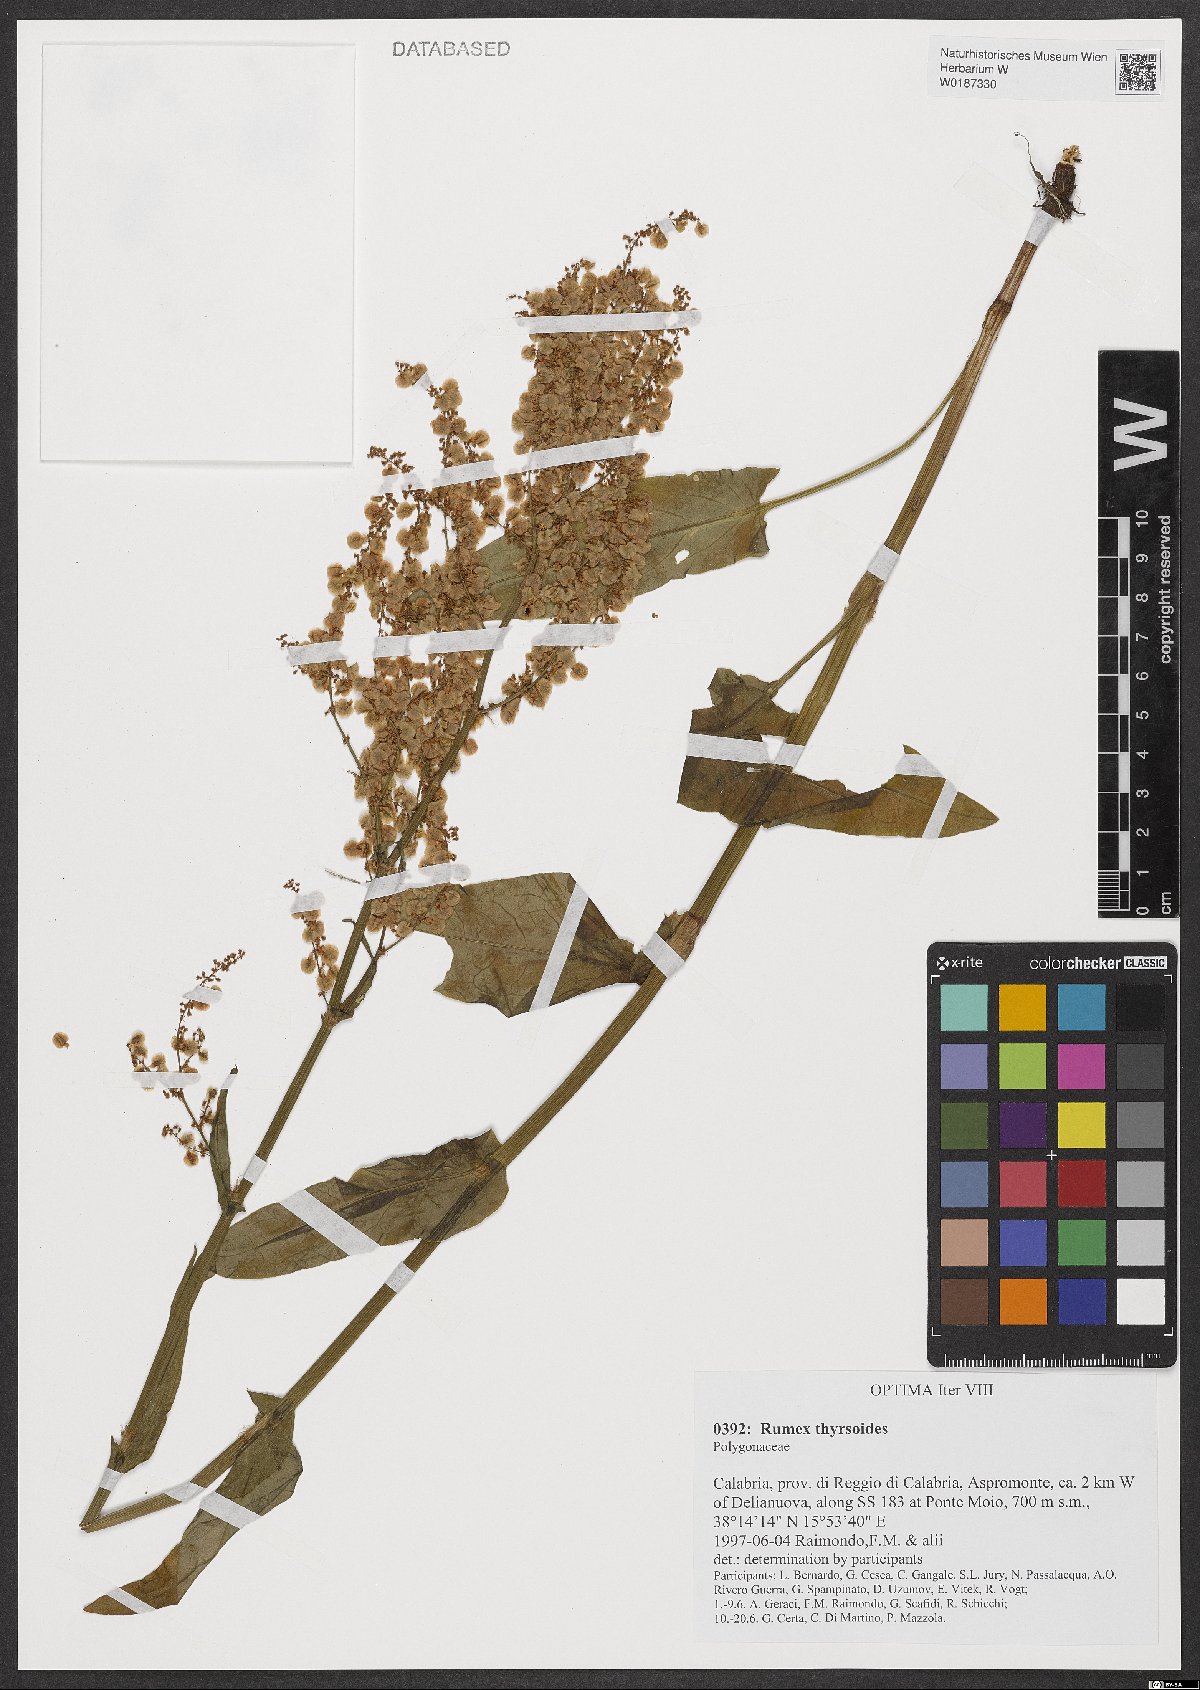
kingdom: Plantae
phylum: Tracheophyta
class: Magnoliopsida
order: Caryophyllales
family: Polygonaceae
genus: Rumex
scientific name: Rumex thyrsoides
